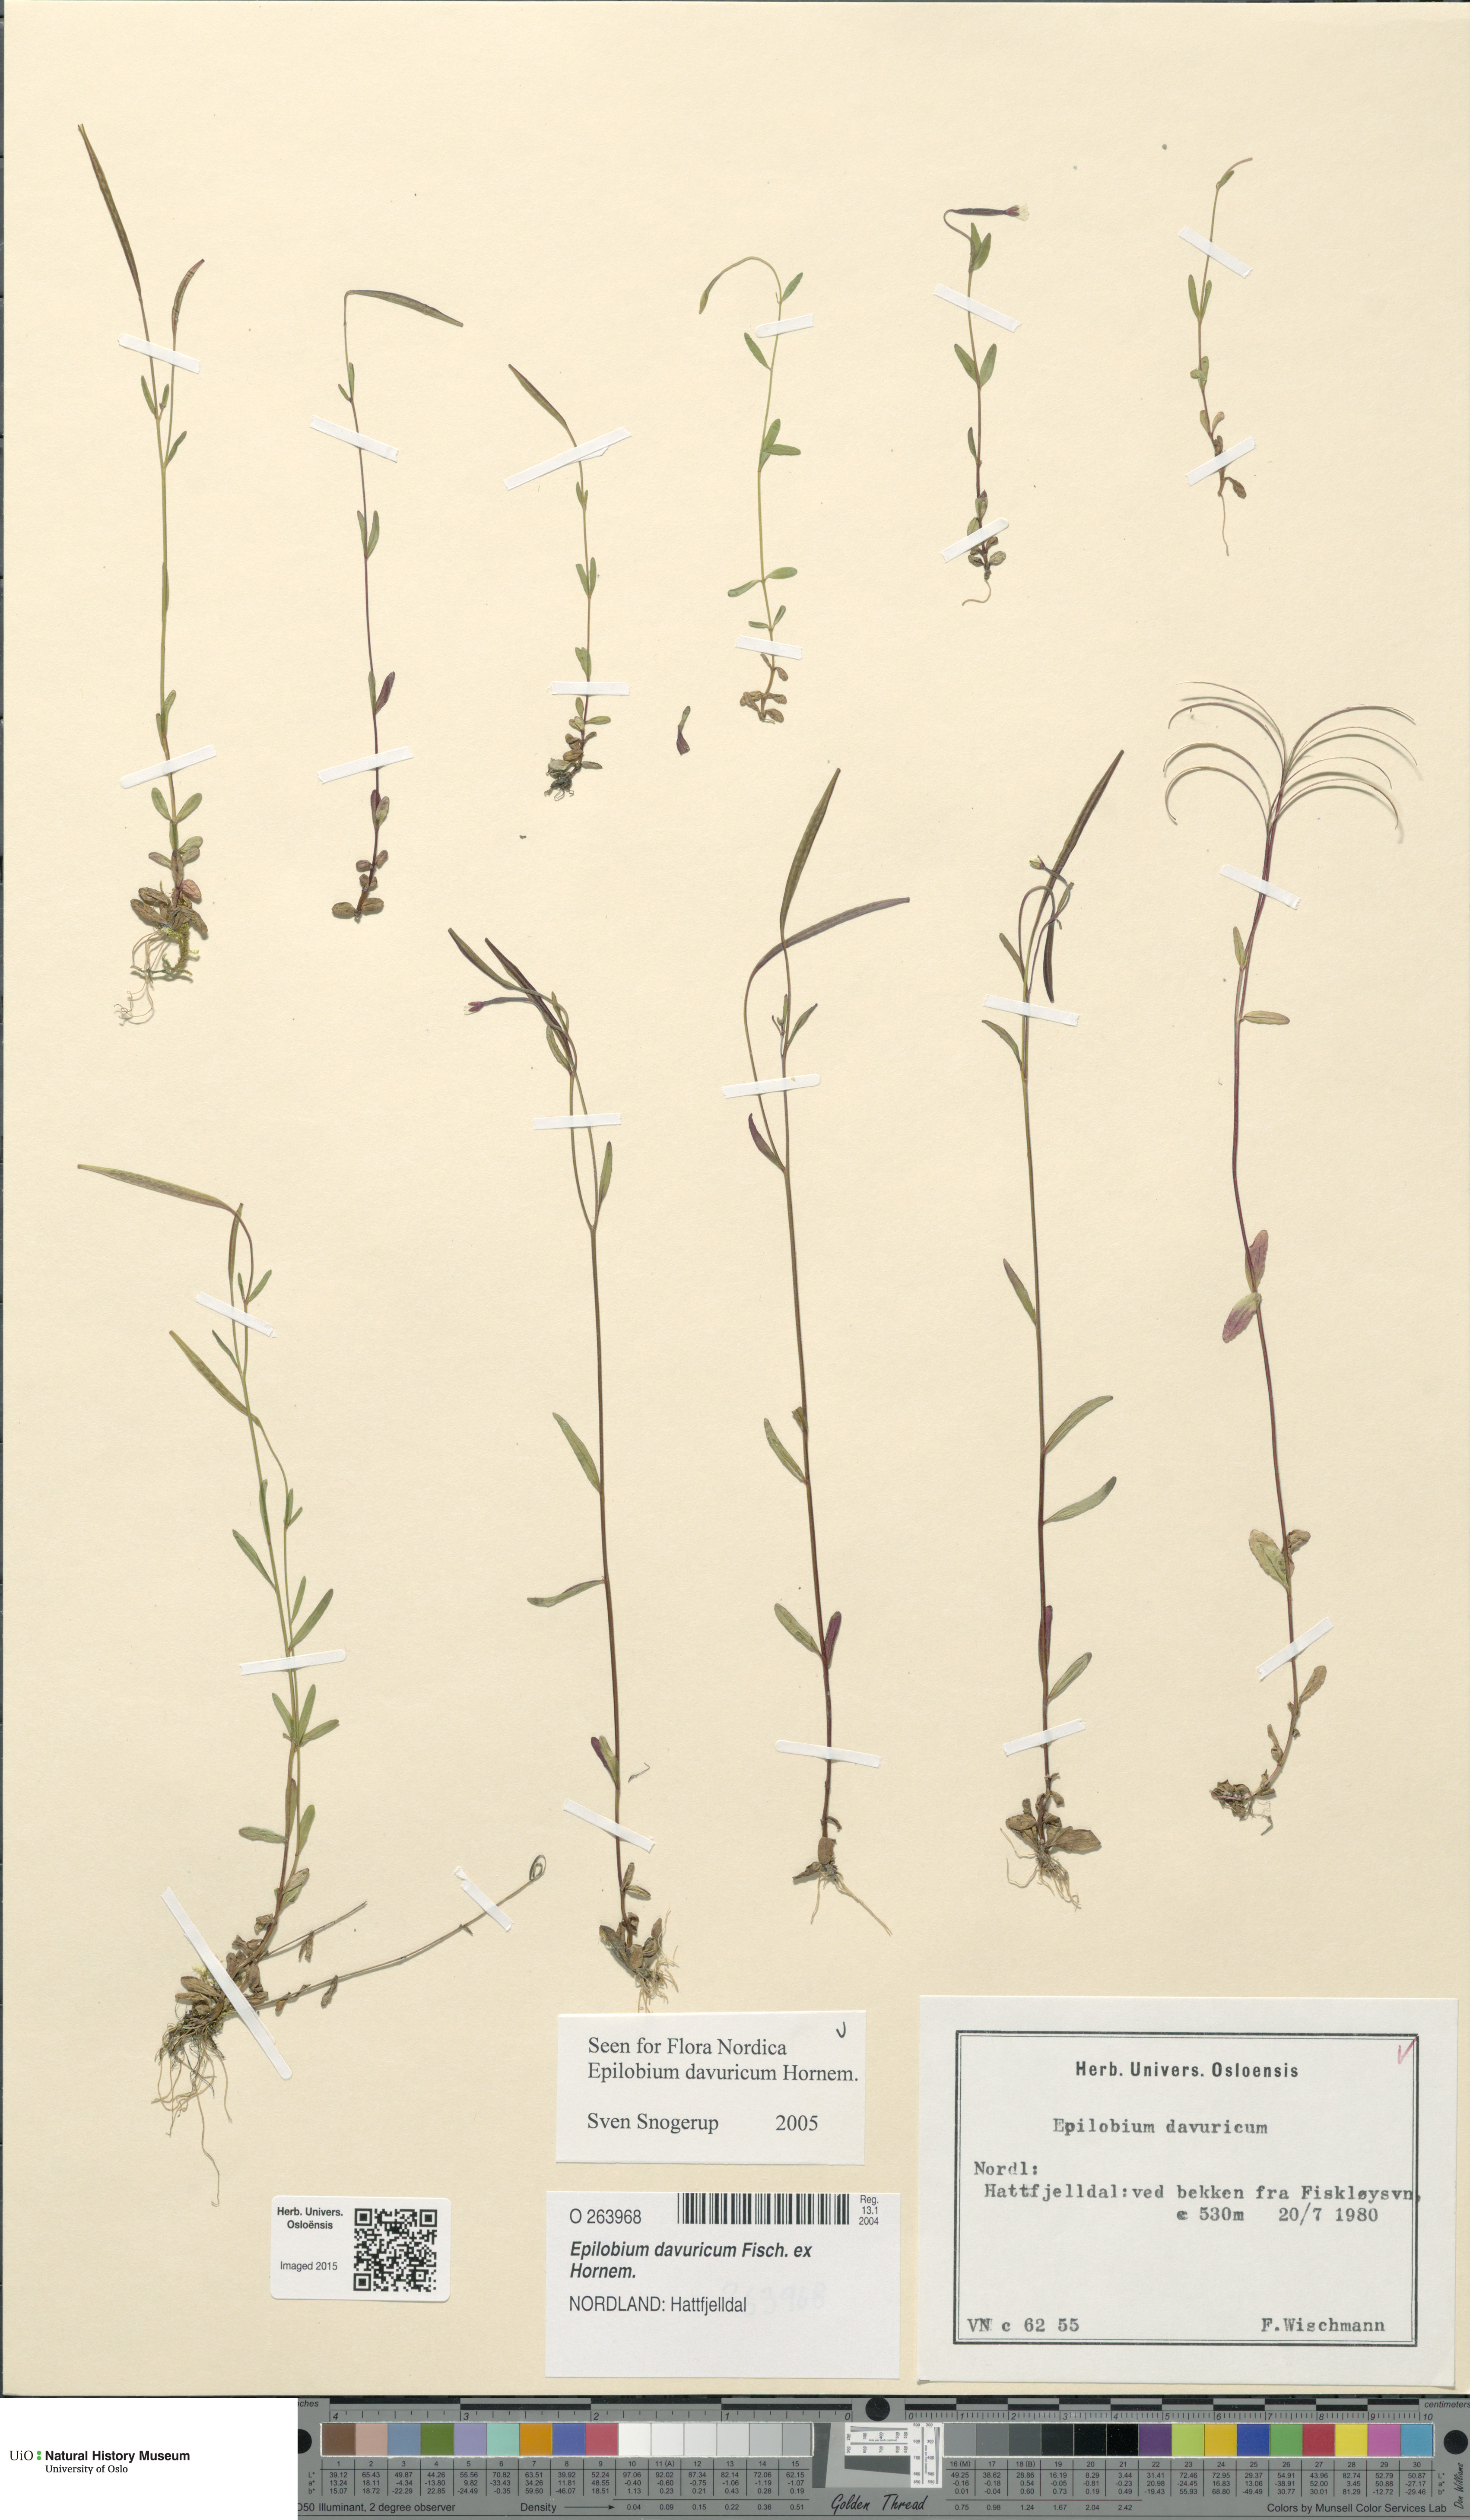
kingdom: Plantae
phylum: Tracheophyta
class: Magnoliopsida
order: Myrtales
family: Onagraceae
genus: Epilobium
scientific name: Epilobium davuricum
